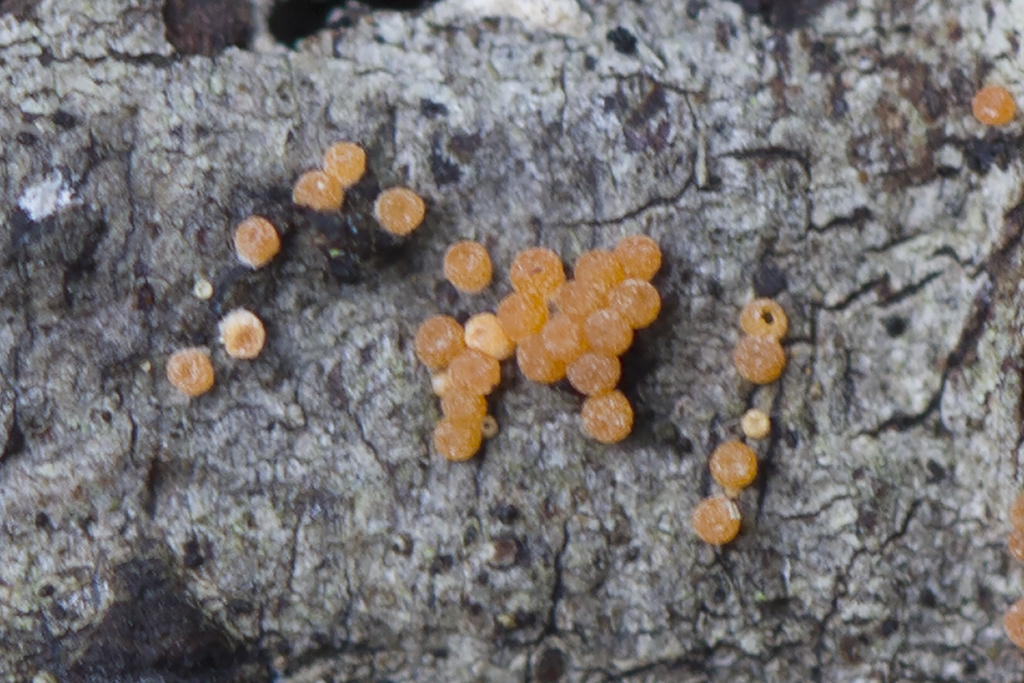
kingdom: Fungi
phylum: Ascomycota
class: Sordariomycetes
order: Hypocreales
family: Nectriaceae
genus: Hydropisphaera
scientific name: Hydropisphaera peziza
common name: skålformet gyldenkerne
